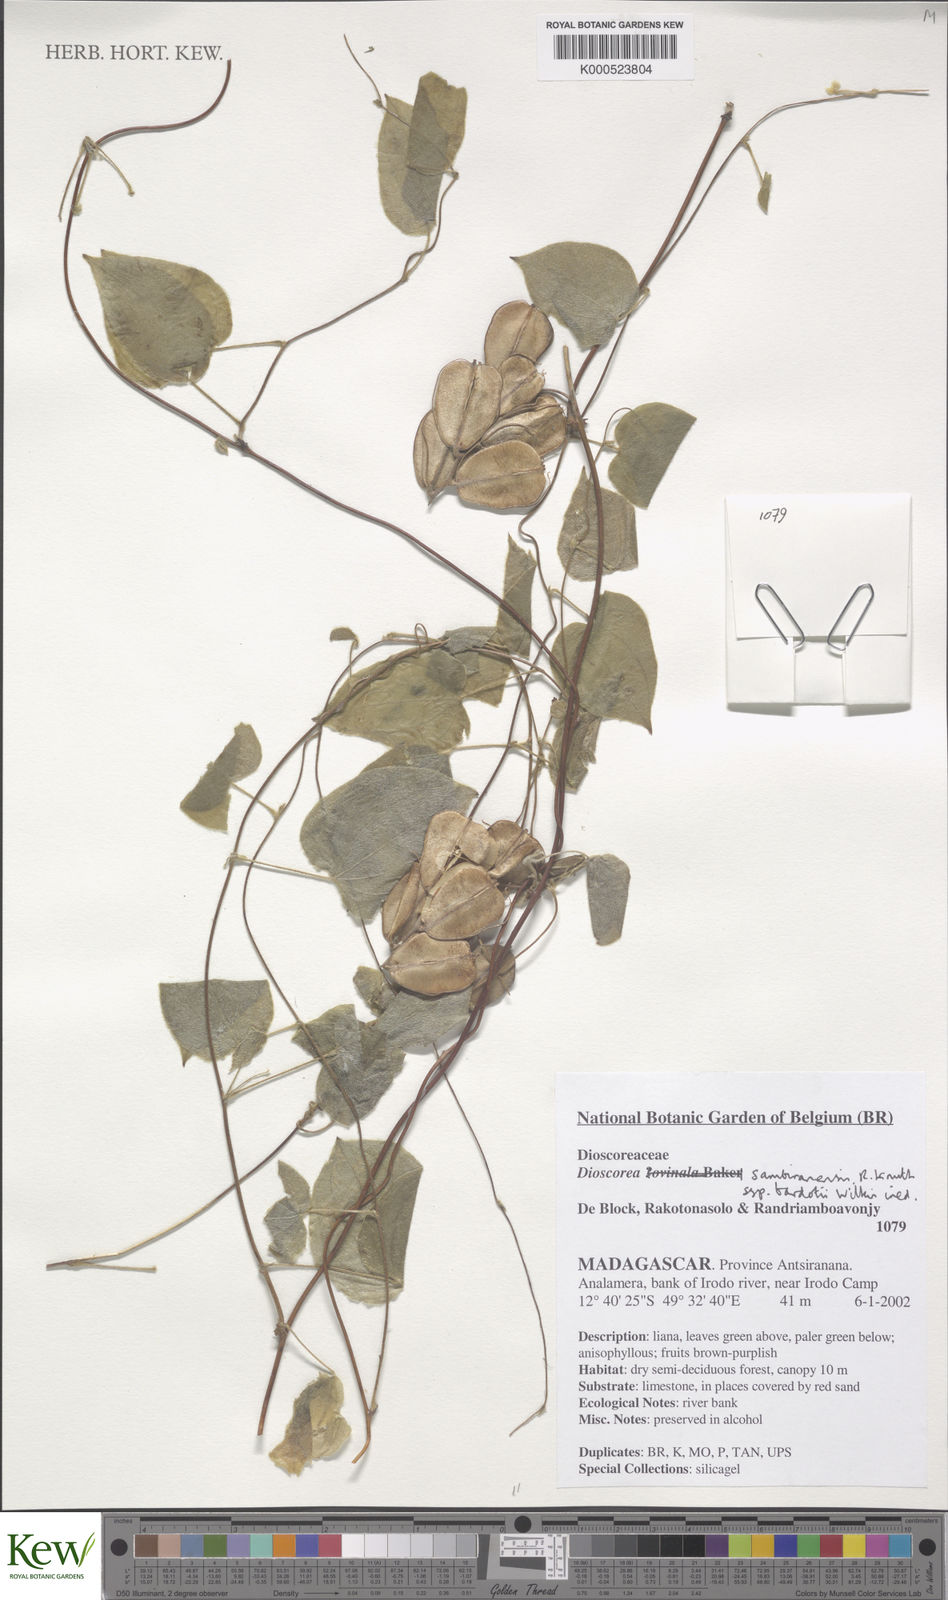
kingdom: Plantae
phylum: Tracheophyta
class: Liliopsida
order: Dioscoreales
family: Dioscoreaceae
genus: Dioscorea
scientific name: Dioscorea sambiranensis
